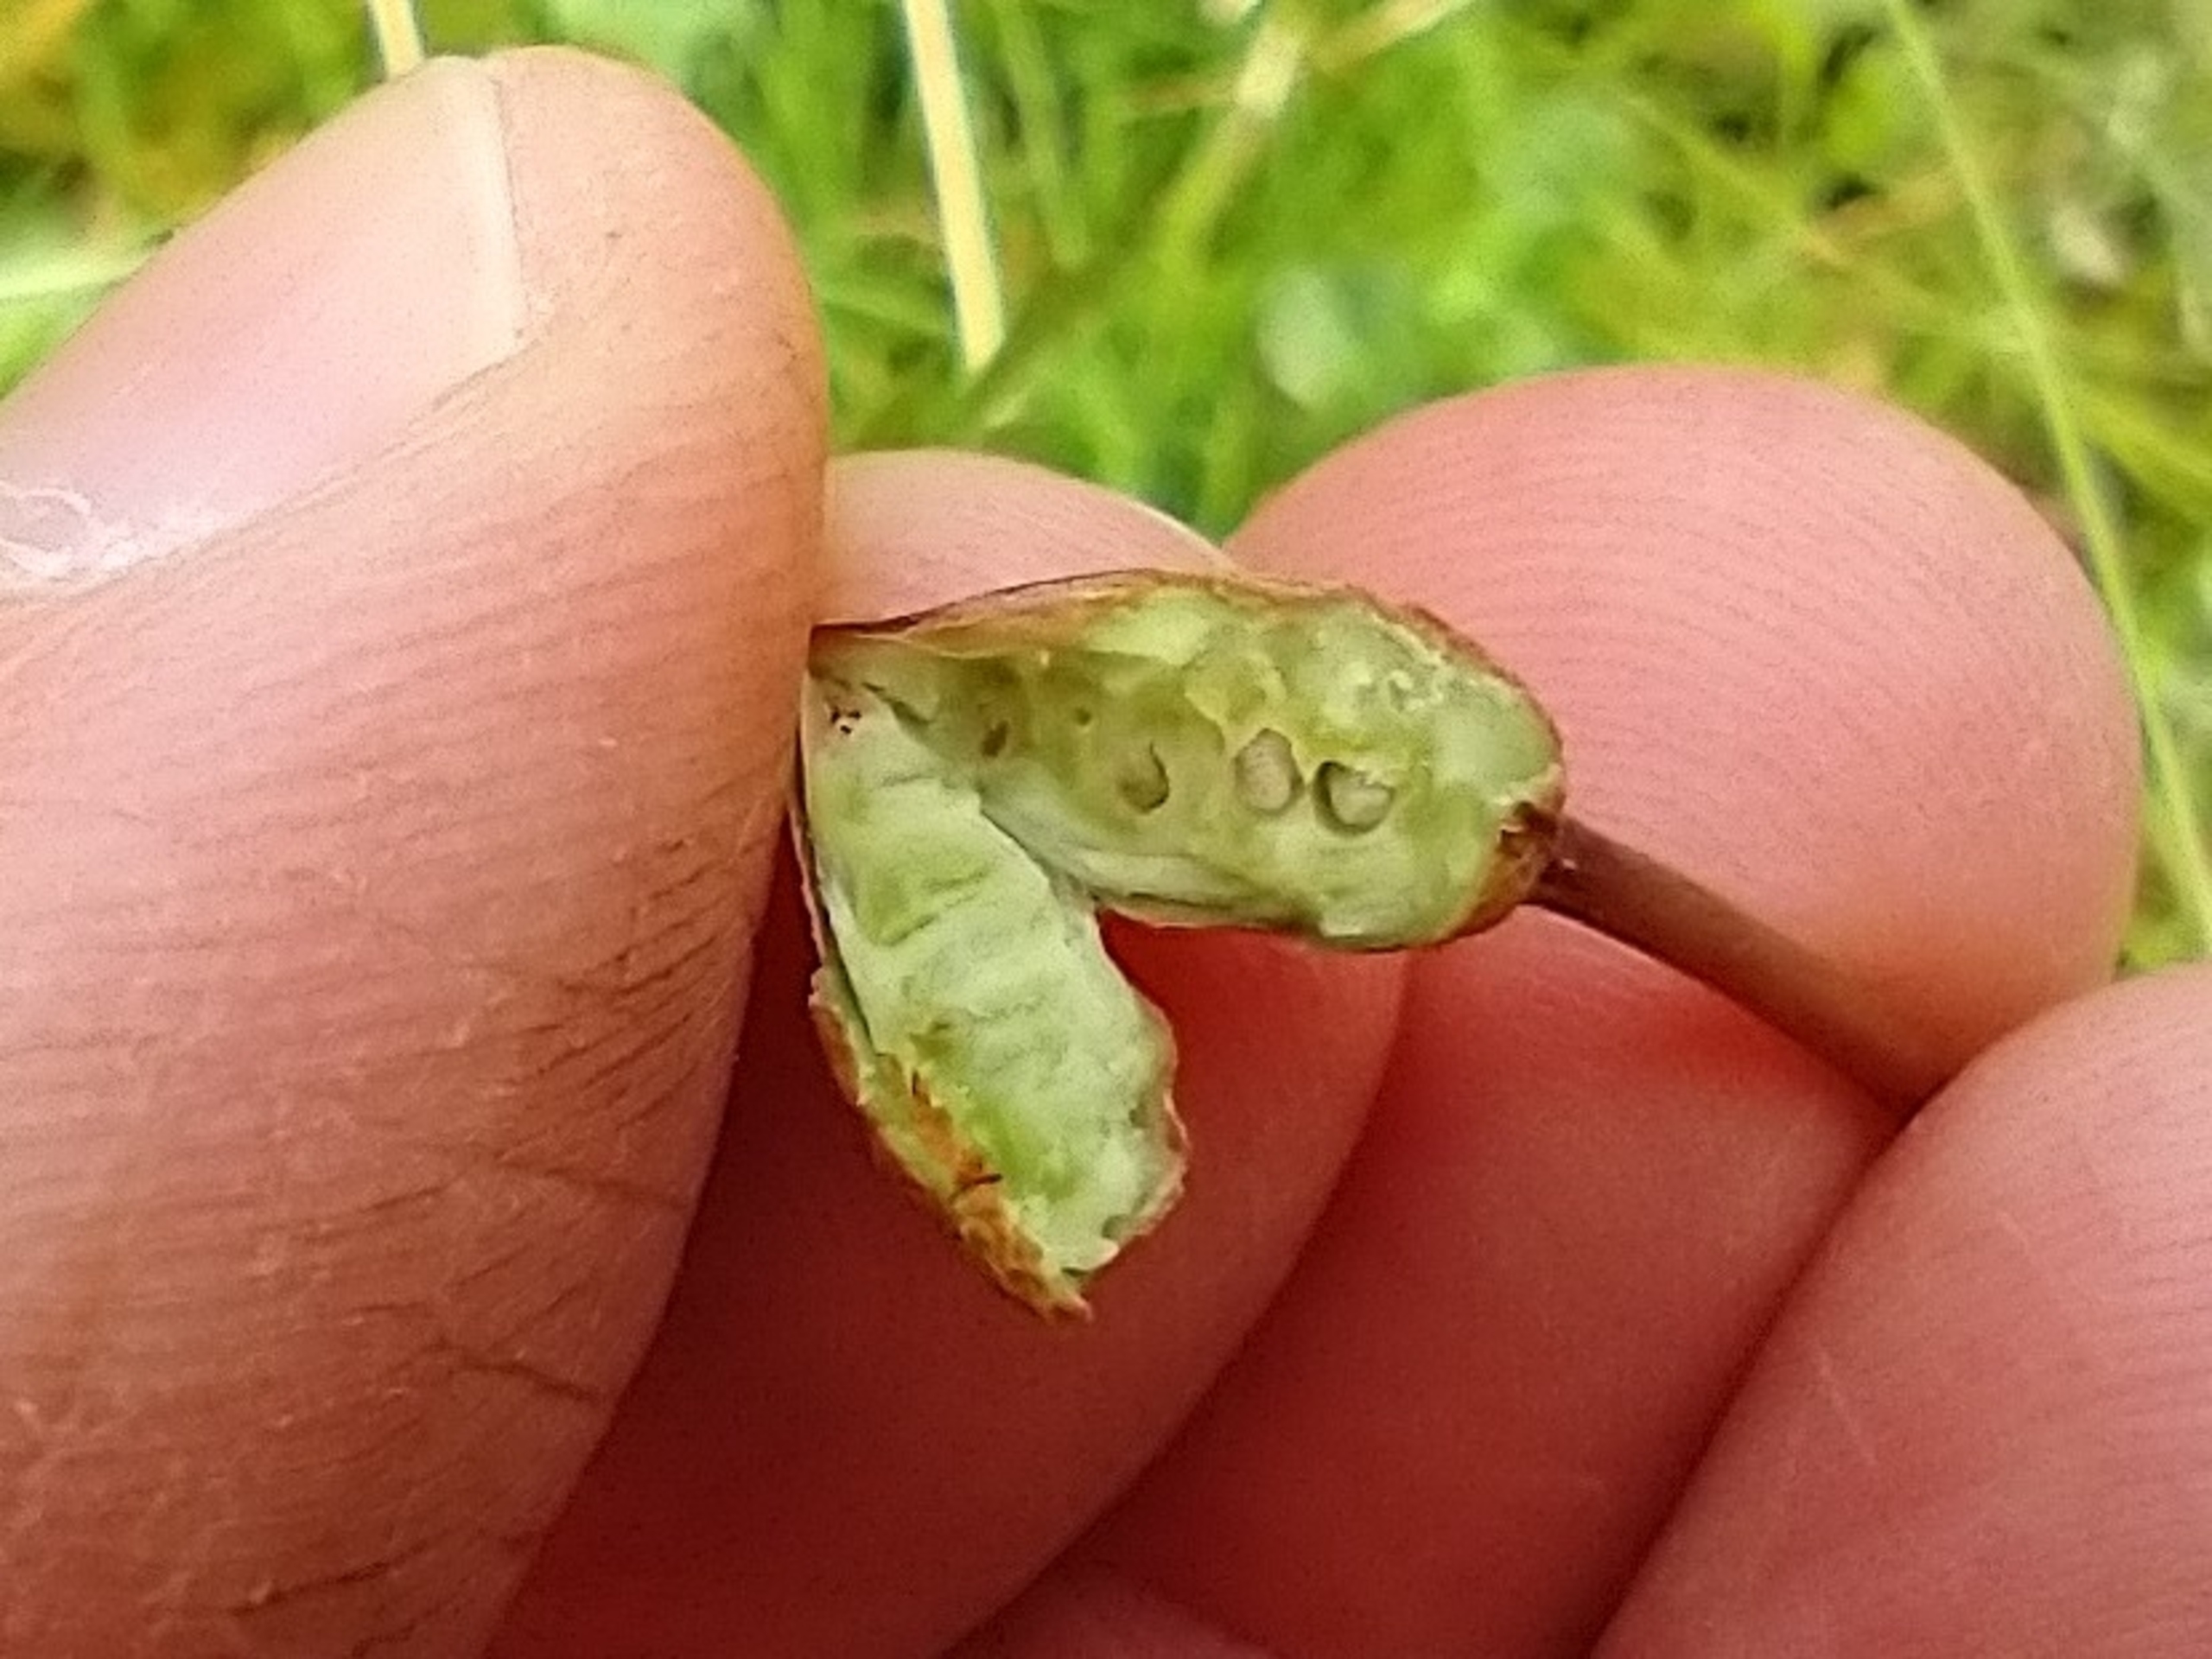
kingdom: Animalia
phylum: Arthropoda
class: Insecta
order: Hymenoptera
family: Cynipidae
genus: Xestophanes
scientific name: Xestophanes potentillae
